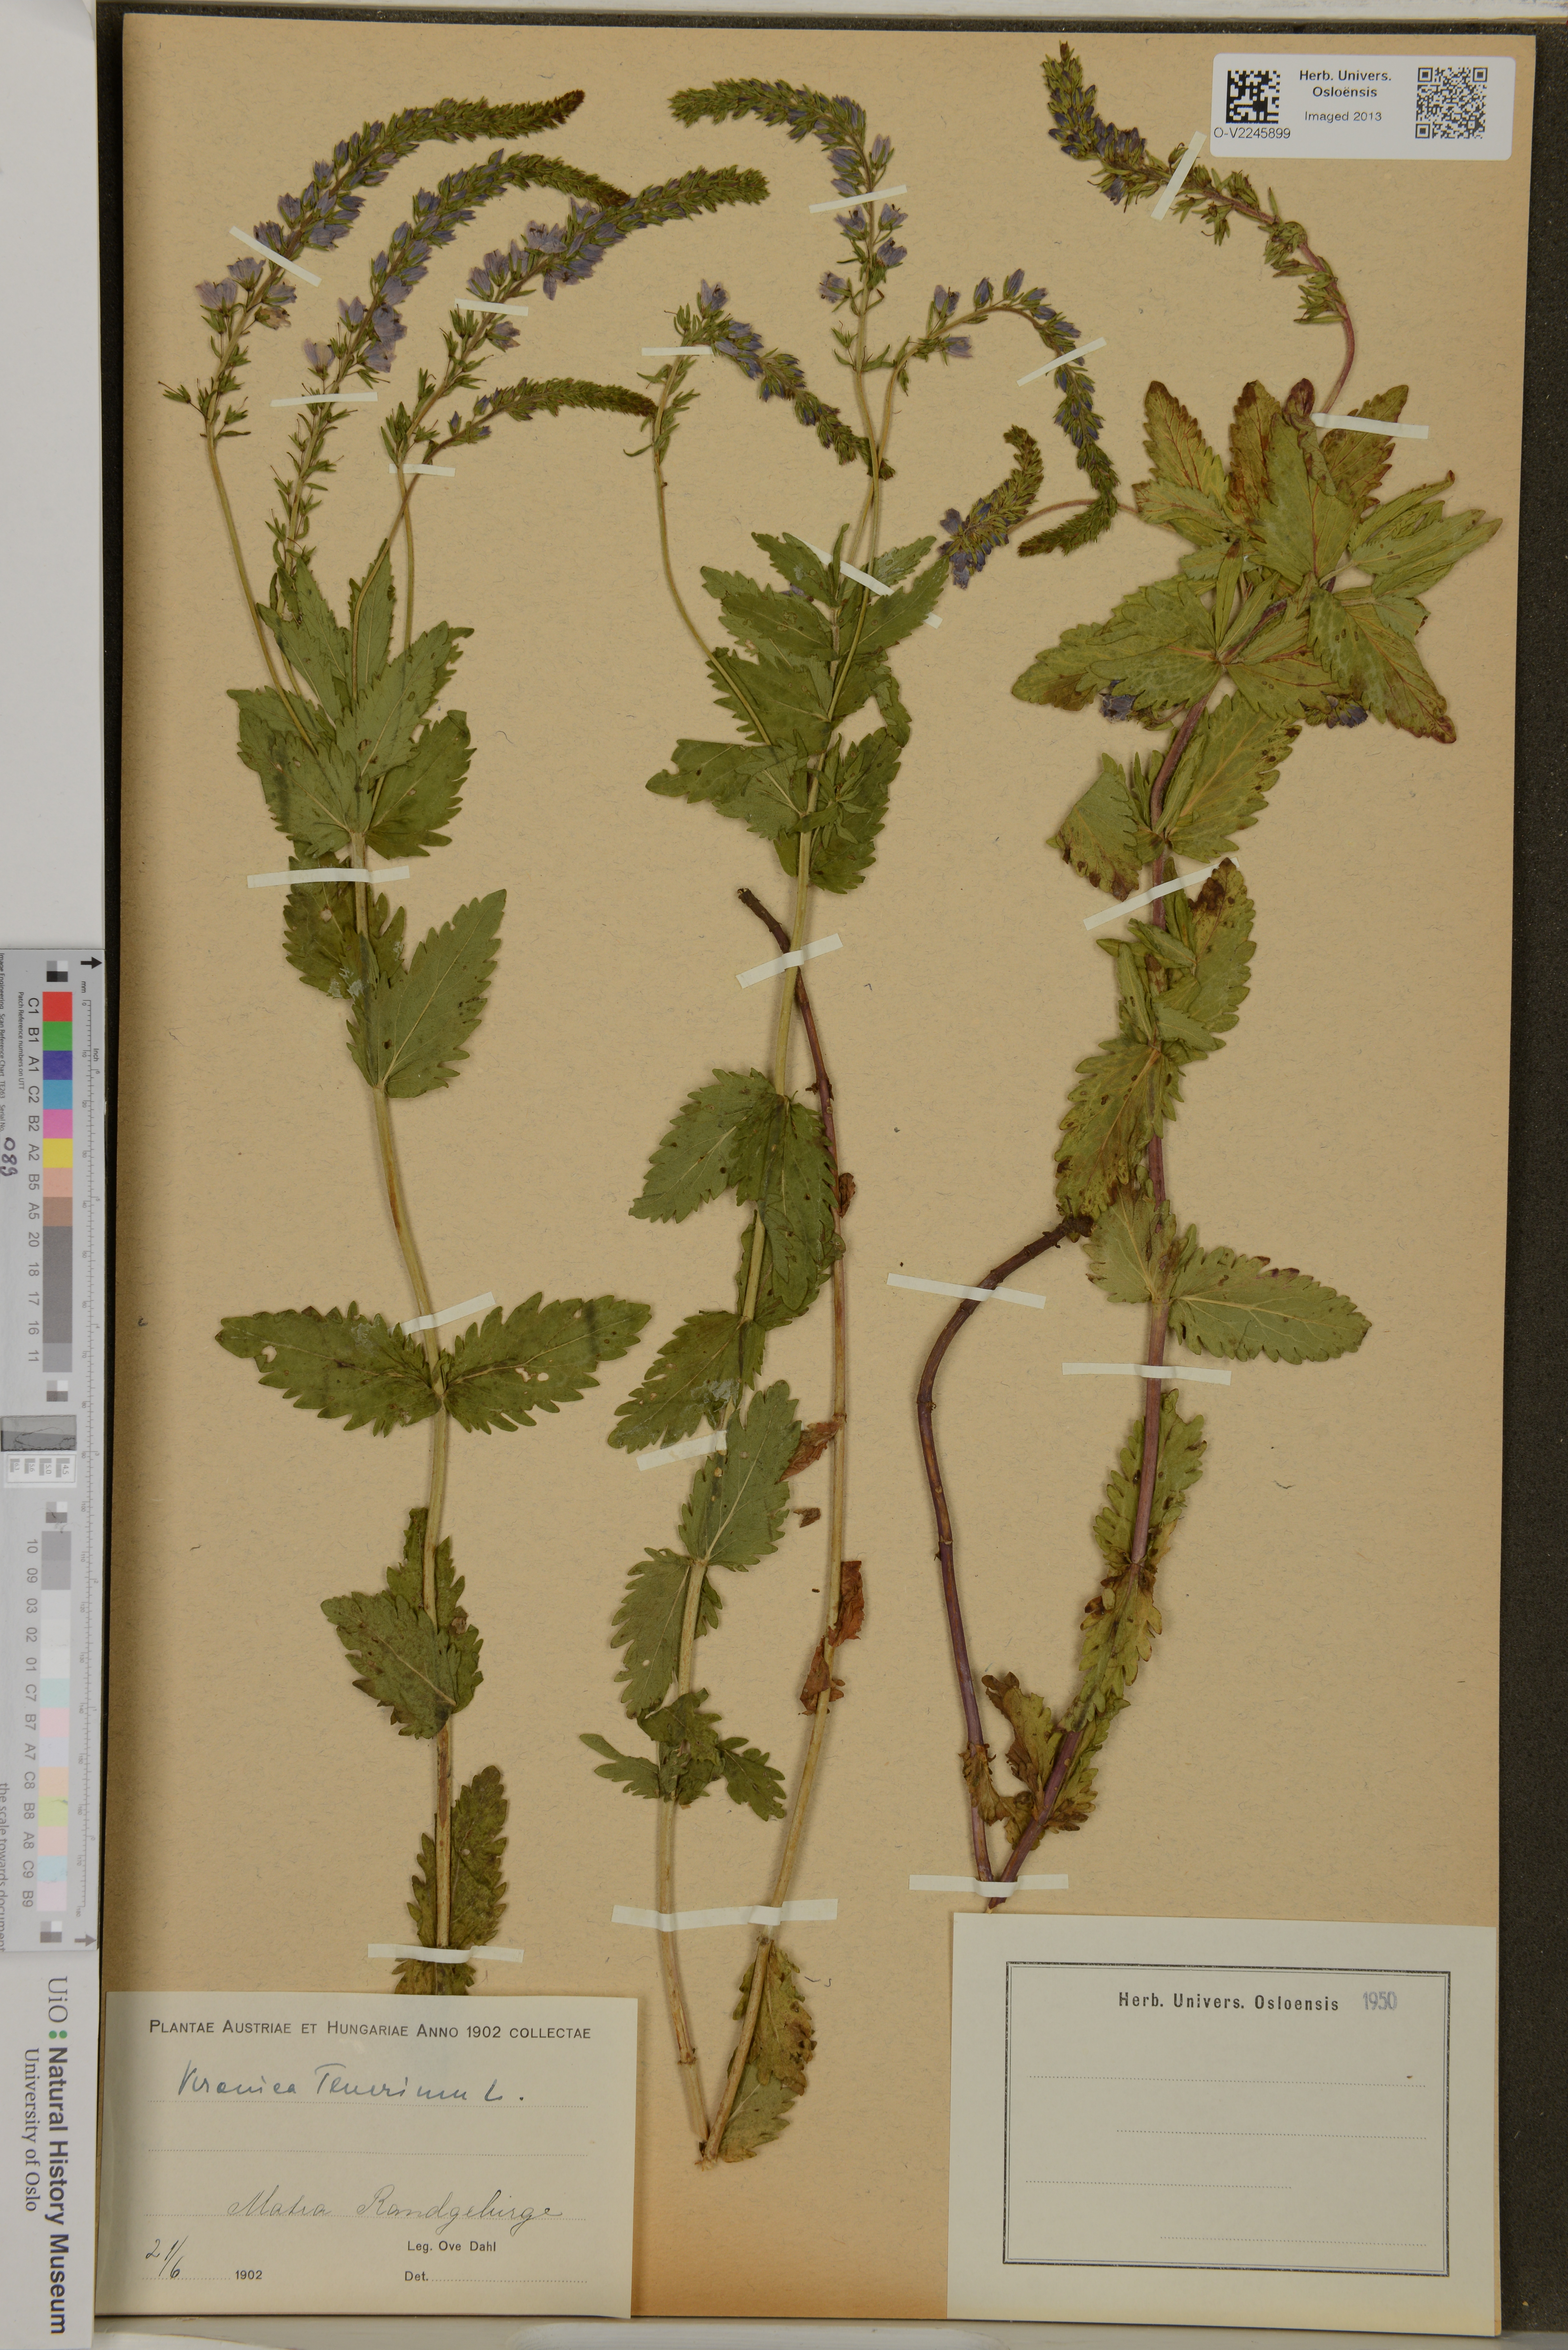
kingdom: Plantae
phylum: Tracheophyta
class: Magnoliopsida
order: Lamiales
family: Plantaginaceae
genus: Veronica
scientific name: Veronica teucrium
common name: Large speedwell
